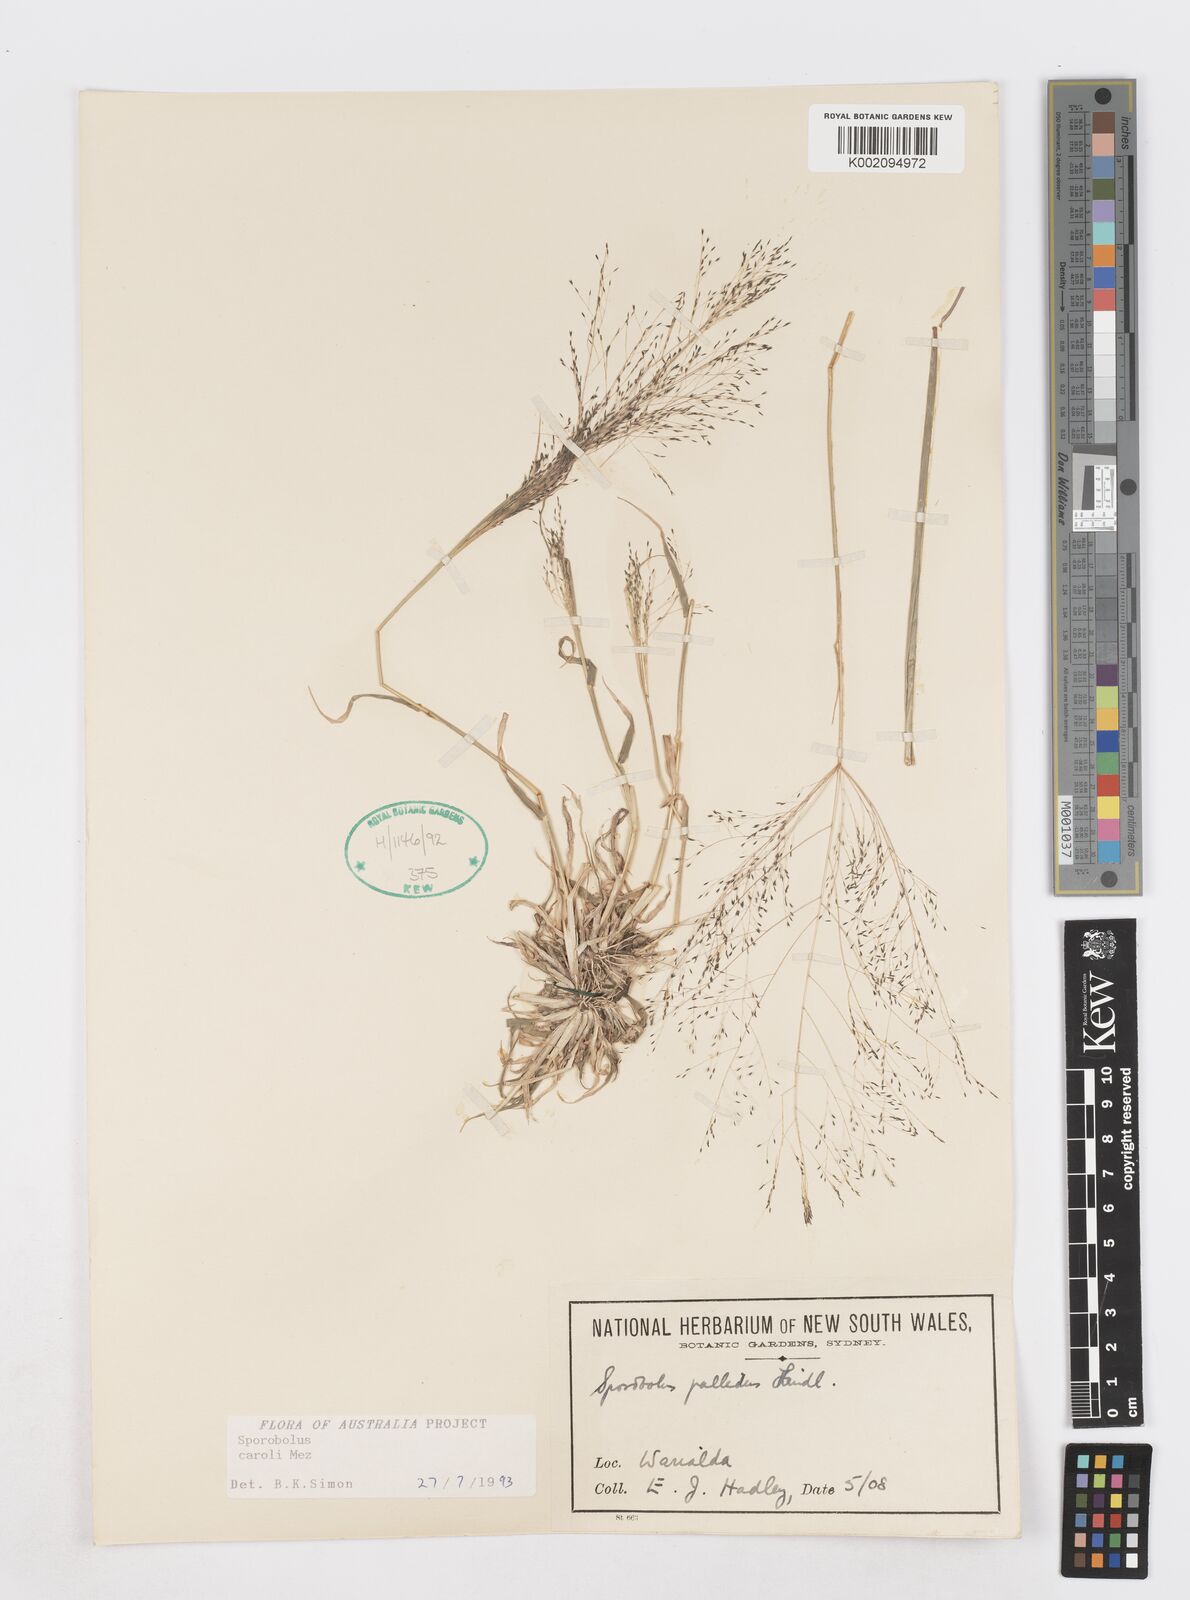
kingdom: Plantae
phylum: Tracheophyta
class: Liliopsida
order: Poales
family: Poaceae
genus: Sporobolus
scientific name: Sporobolus caroli
